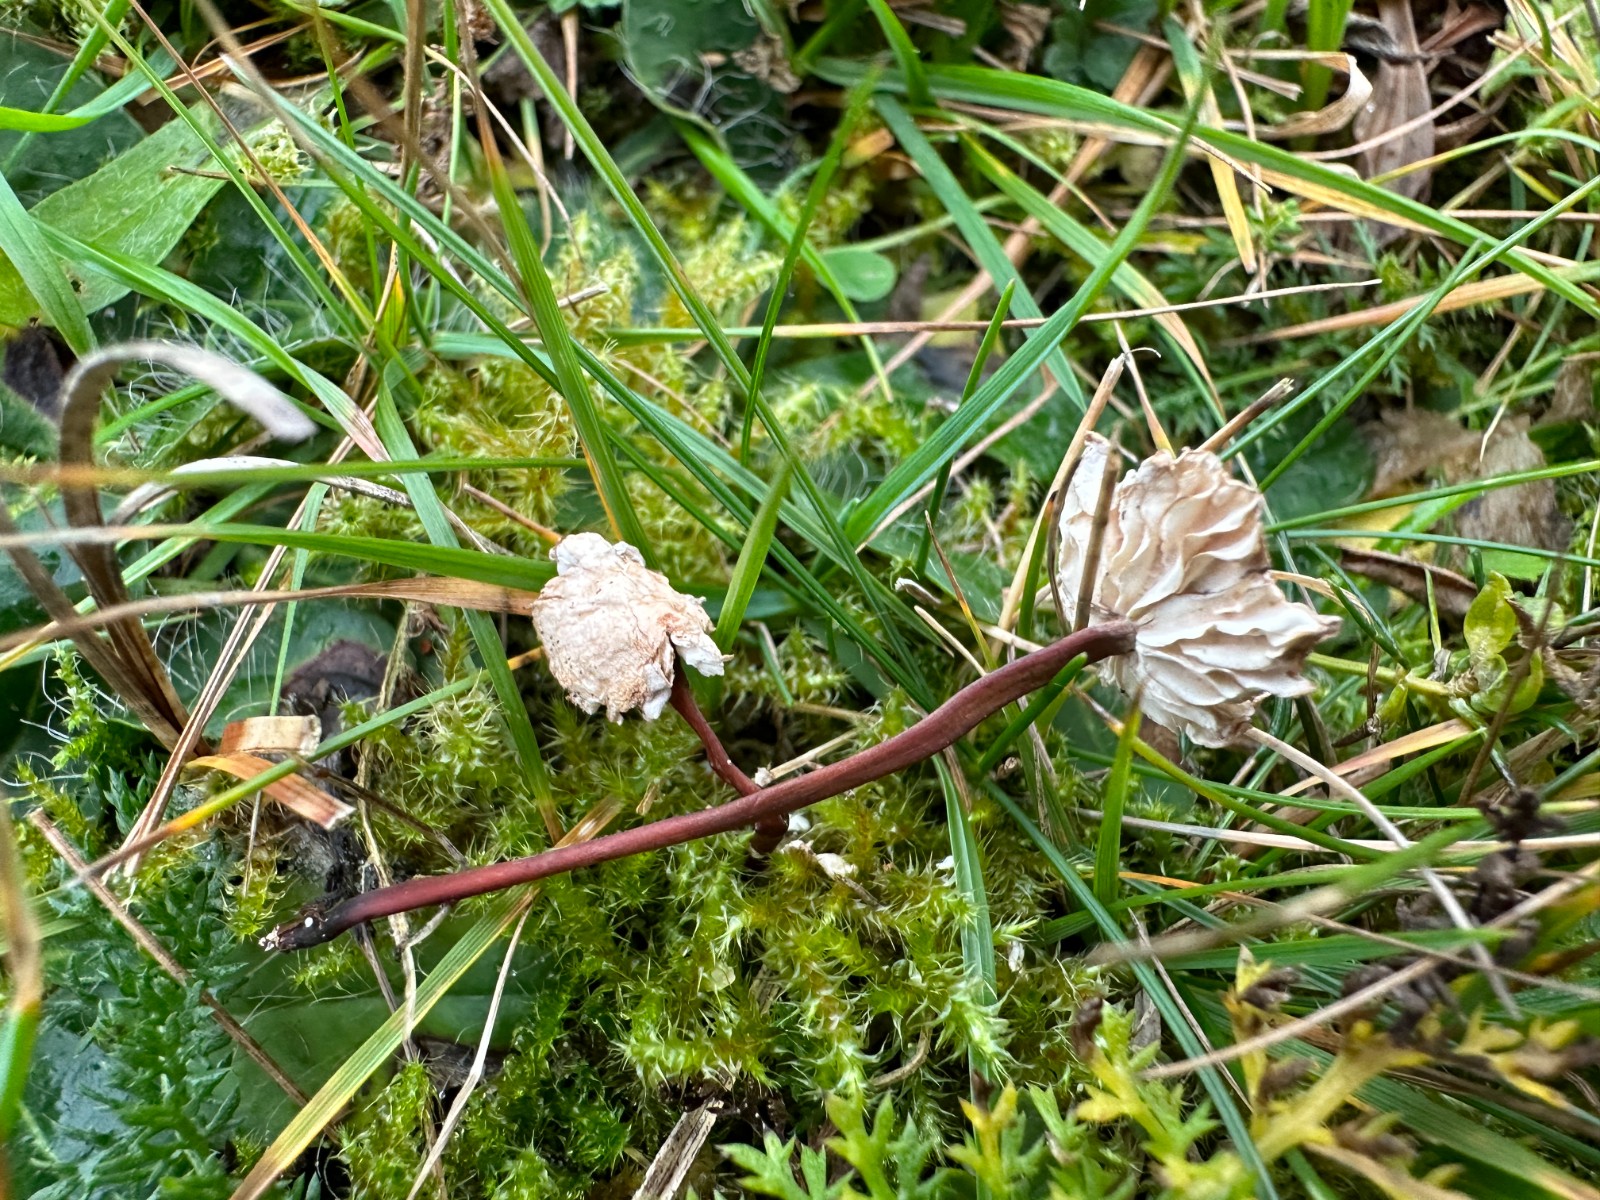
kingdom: Fungi
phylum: Basidiomycota
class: Agaricomycetes
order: Agaricales
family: Omphalotaceae
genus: Mycetinis
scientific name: Mycetinis scorodonius
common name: lille løghat
